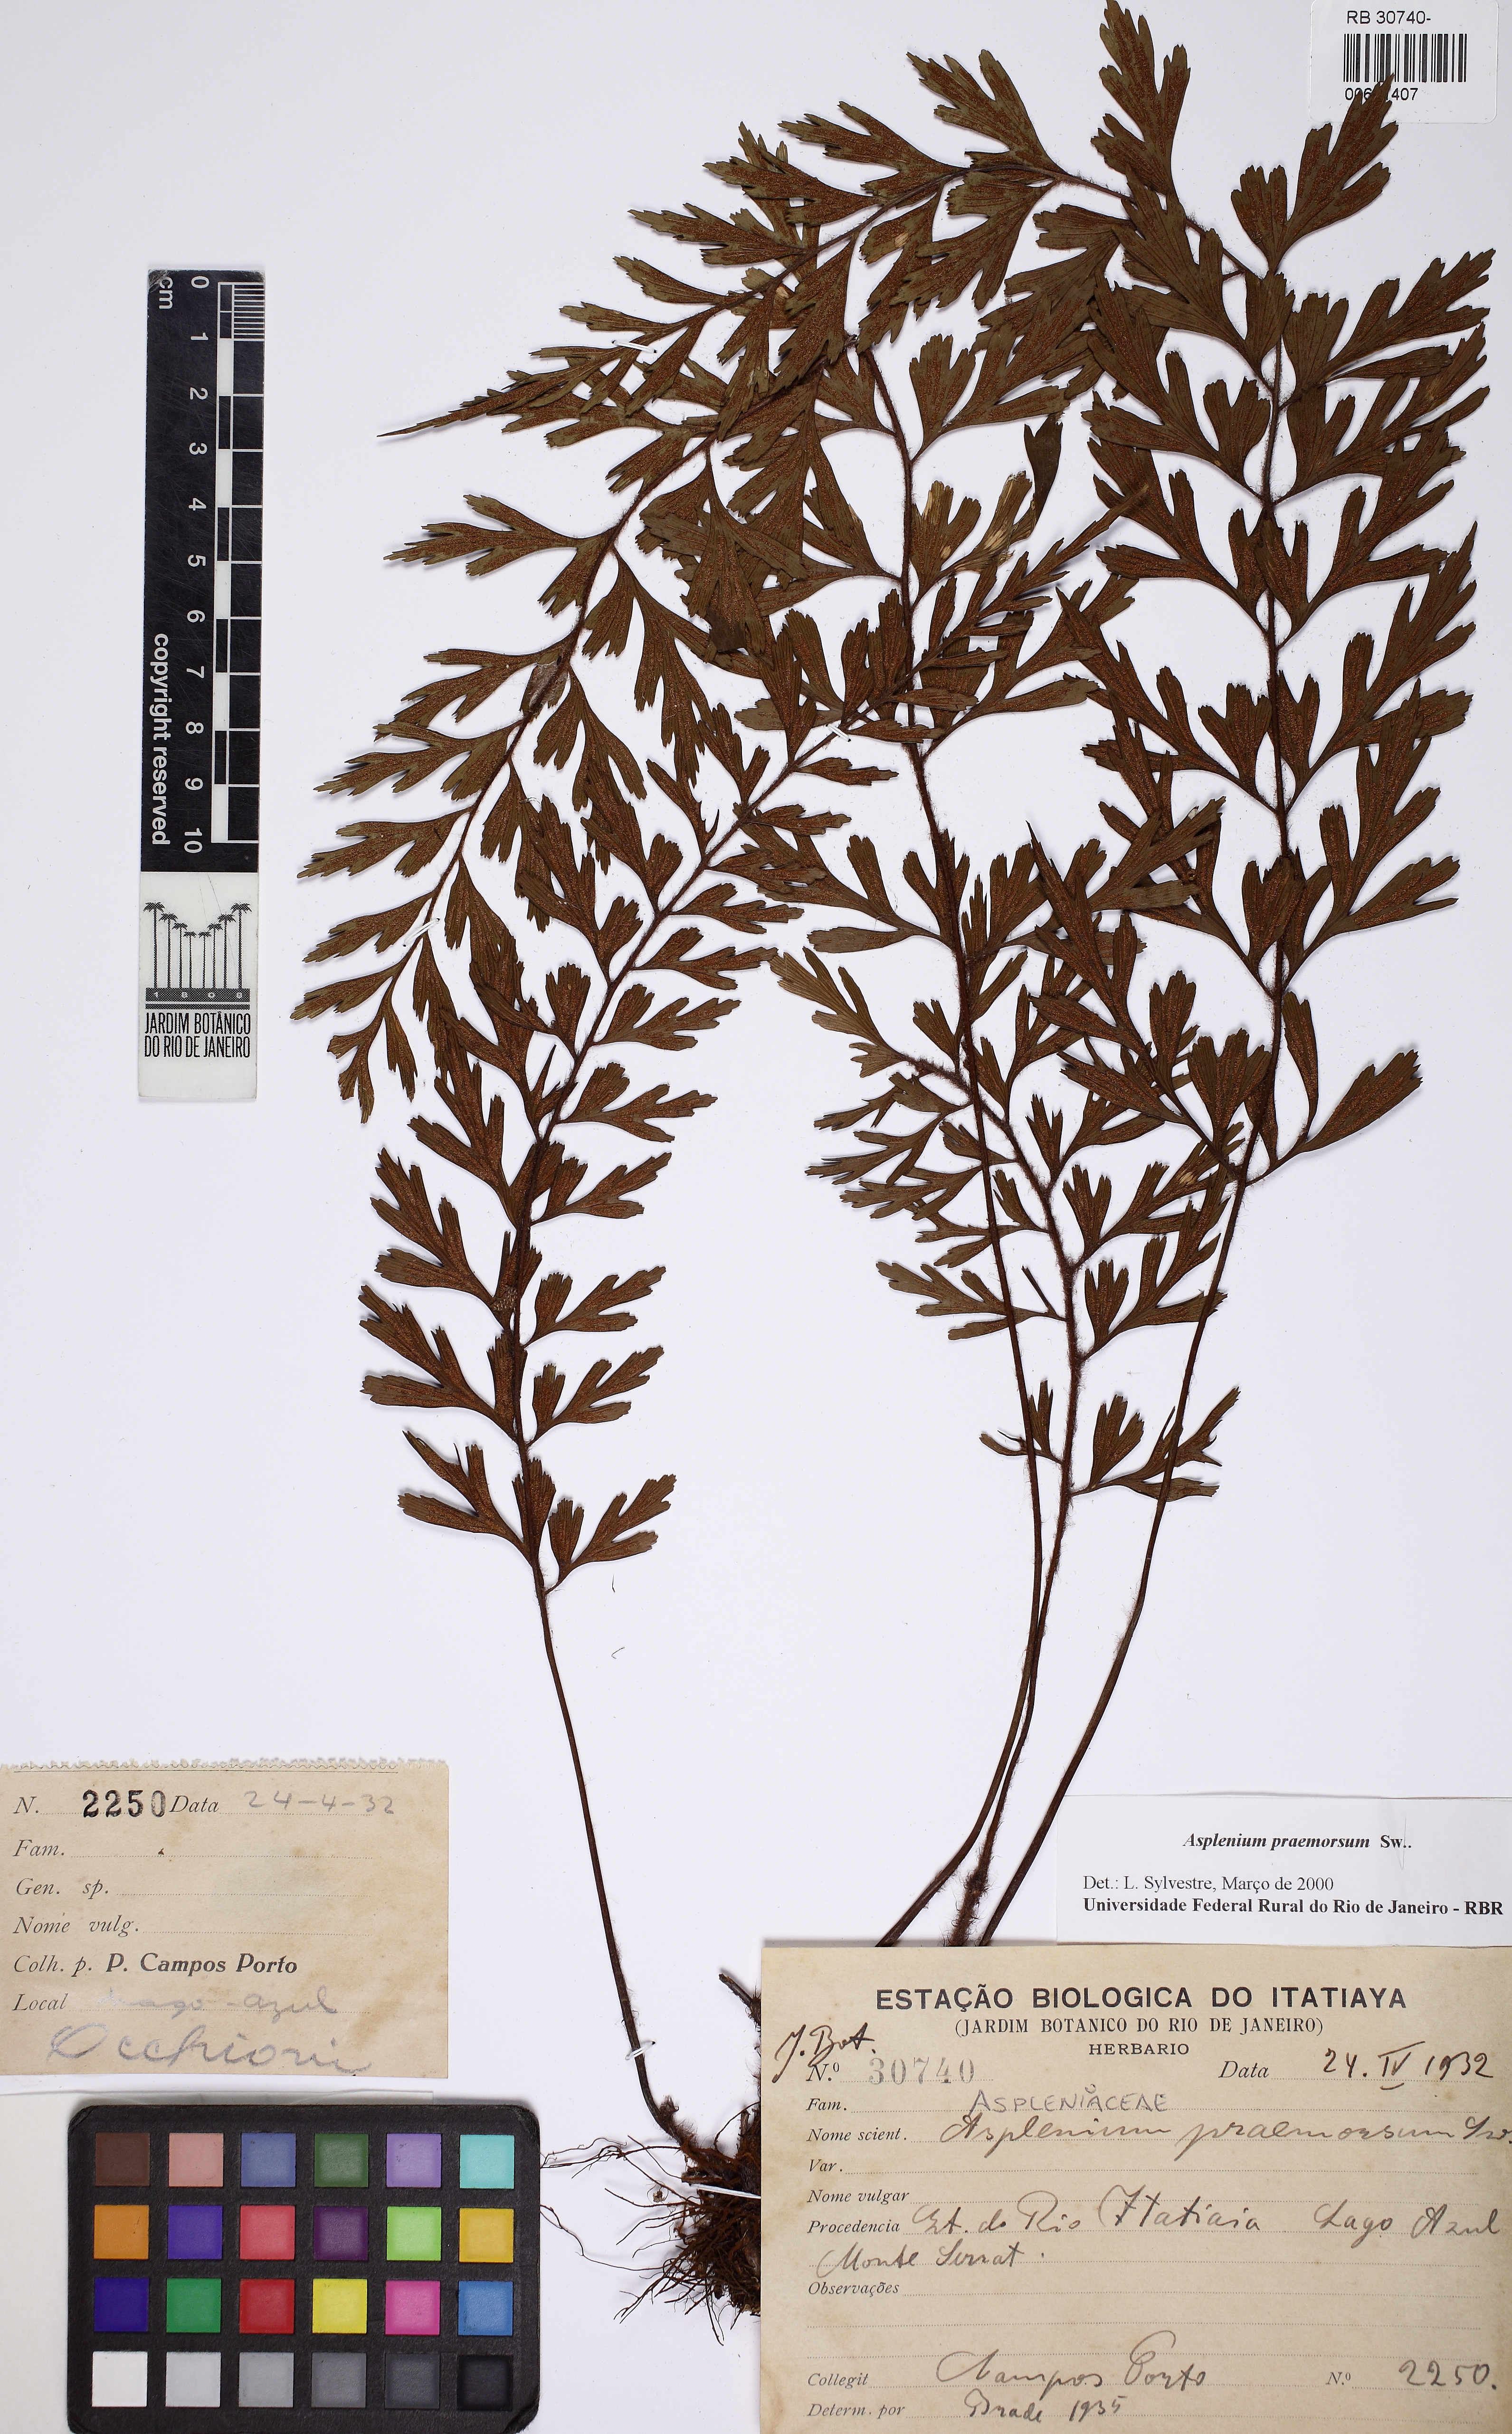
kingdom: Plantae
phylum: Tracheophyta
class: Polypodiopsida
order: Polypodiales
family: Aspleniaceae
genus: Asplenium
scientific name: Asplenium praemorsum
